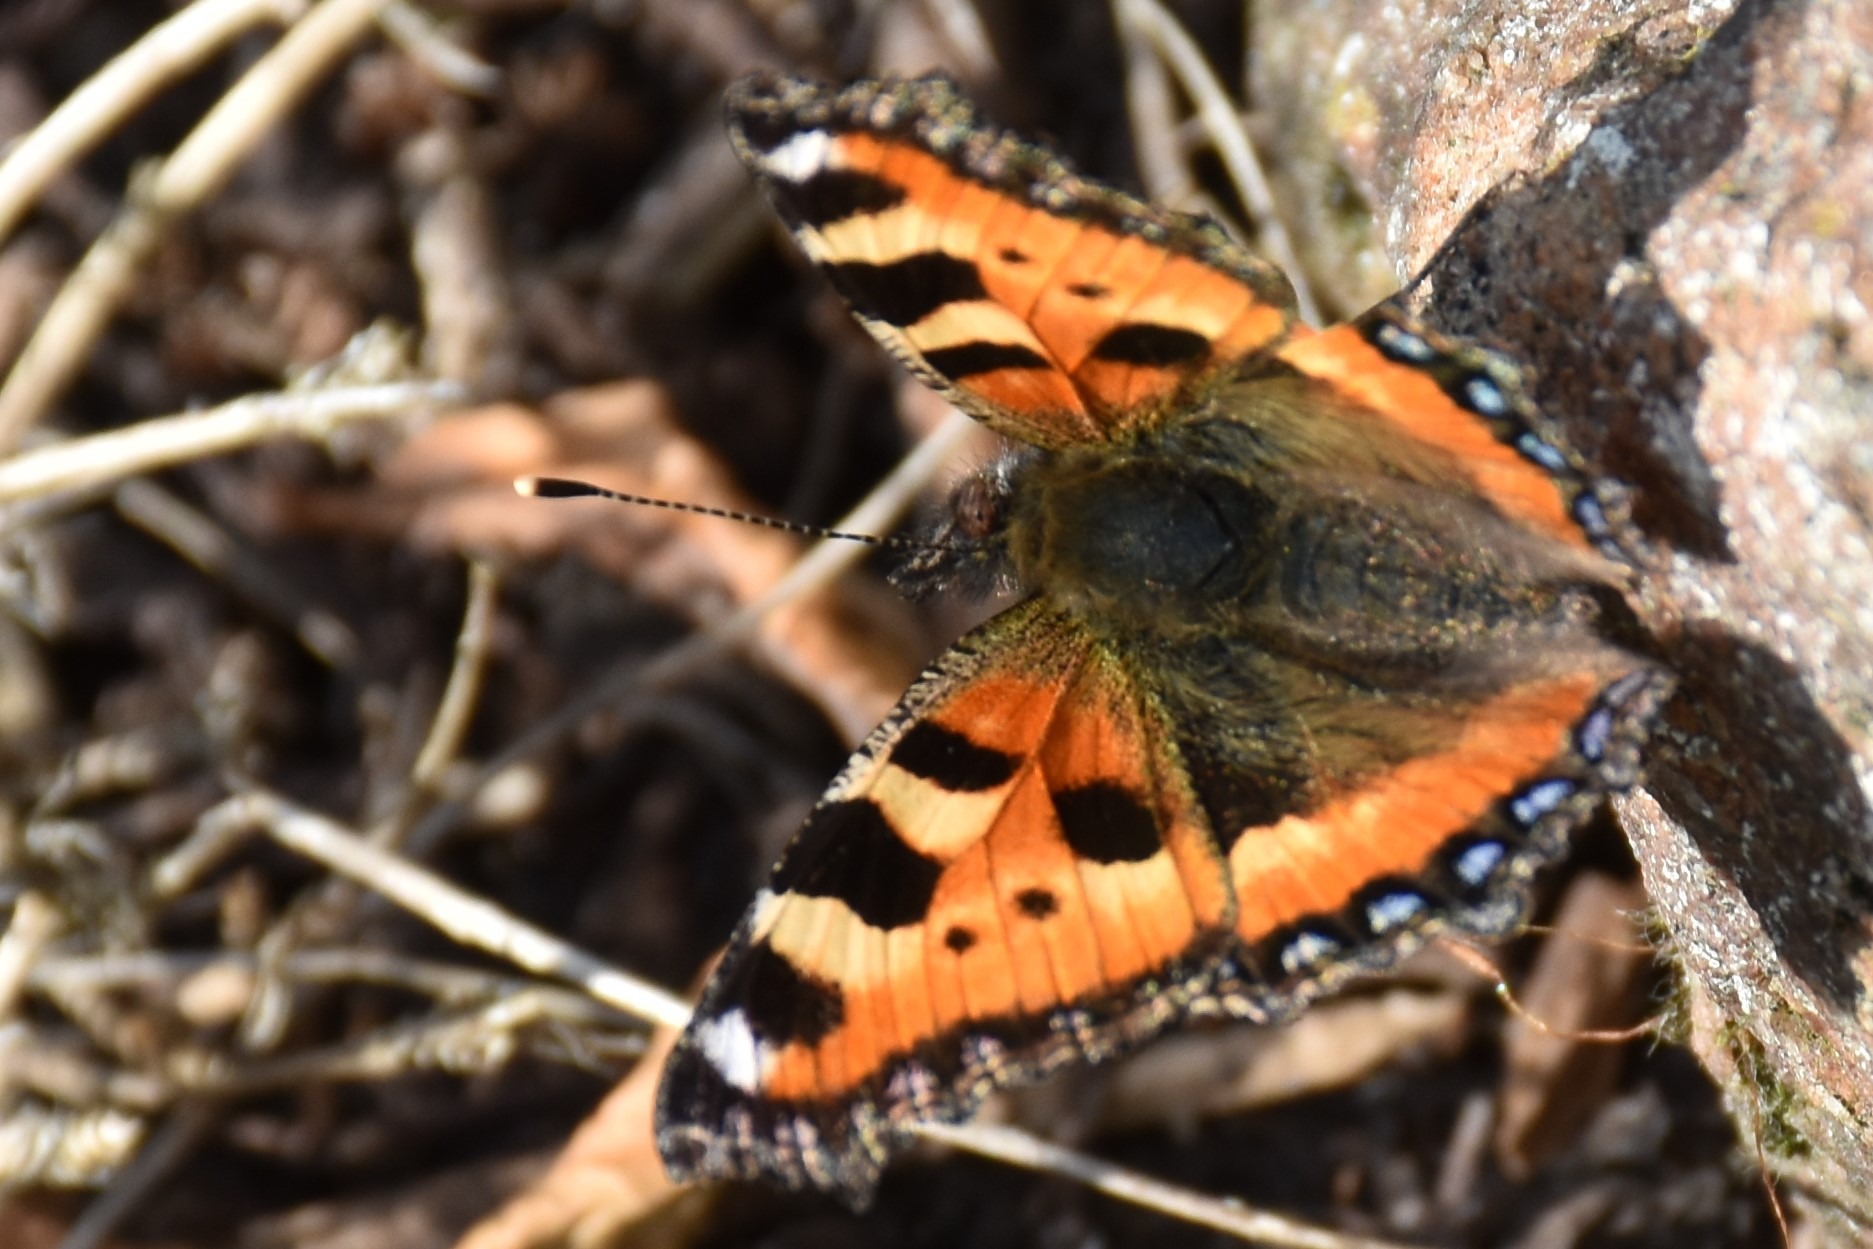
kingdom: Animalia
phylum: Arthropoda
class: Insecta
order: Lepidoptera
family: Nymphalidae
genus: Aglais
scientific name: Aglais urticae
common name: Nældens takvinge
